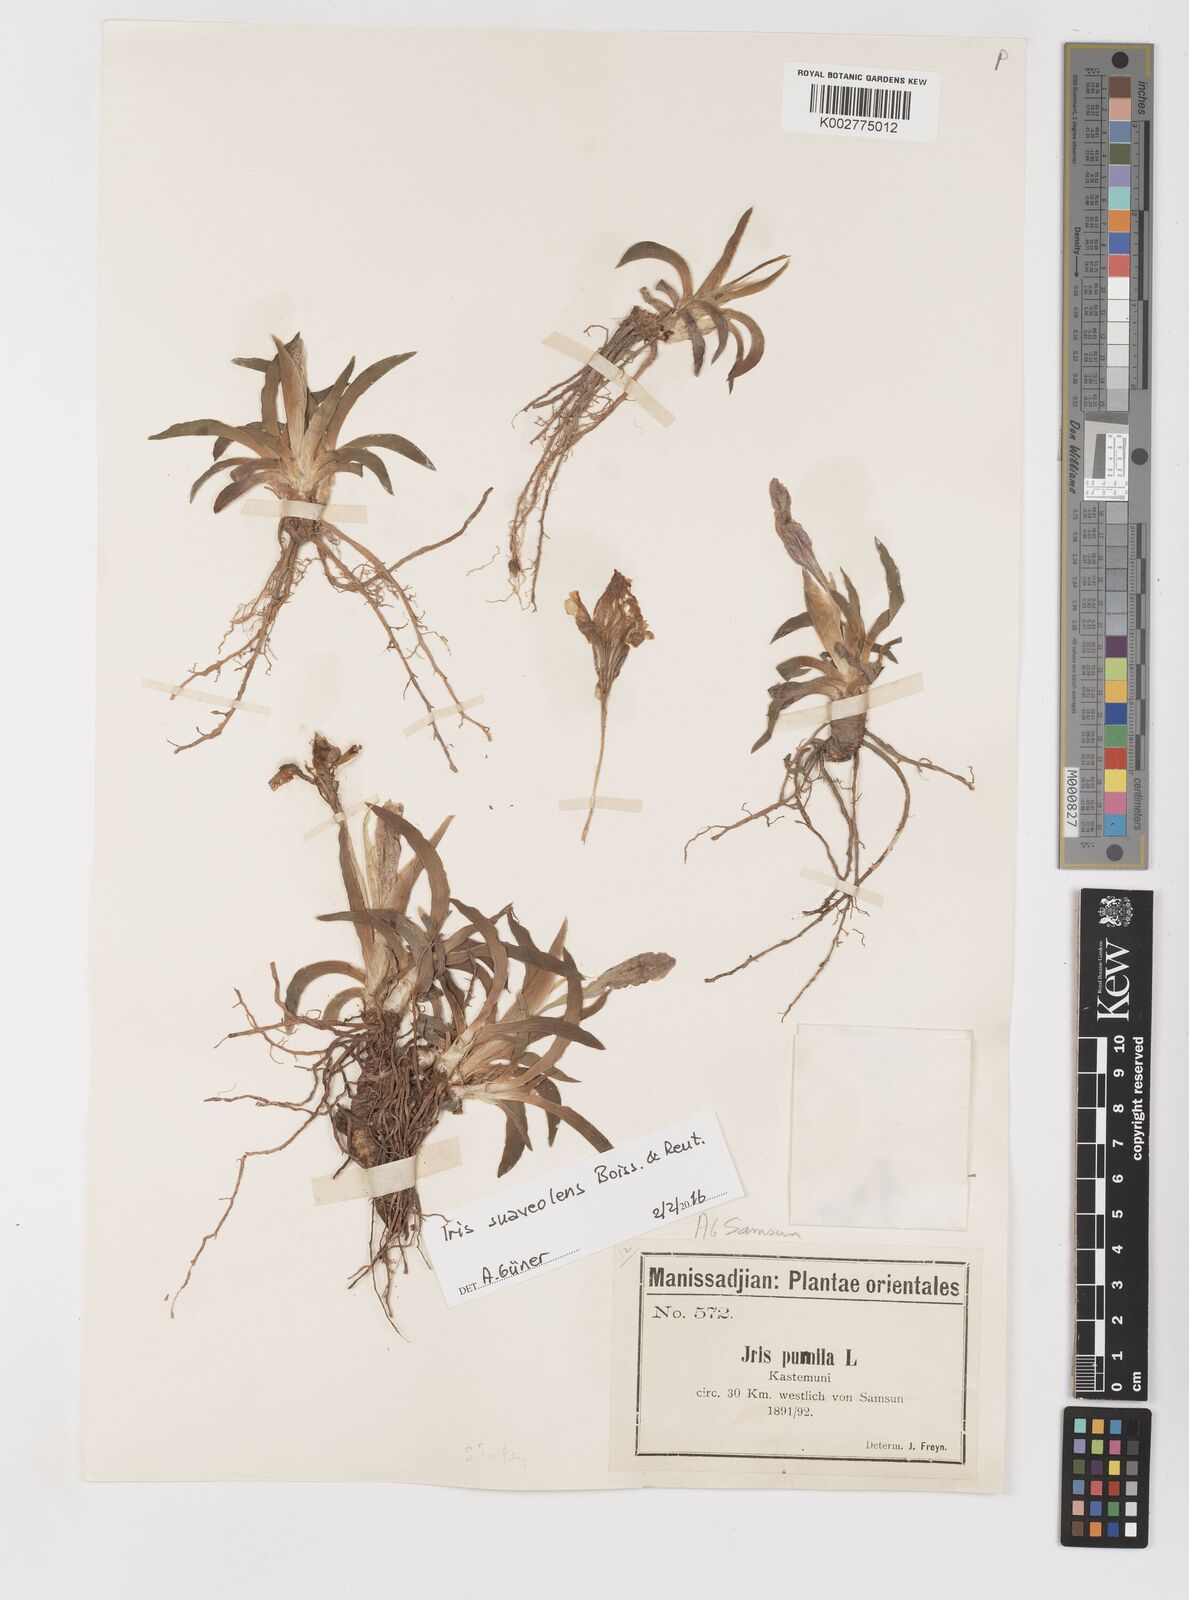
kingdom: Plantae
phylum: Tracheophyta
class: Liliopsida
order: Asparagales
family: Iridaceae
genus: Iris
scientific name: Iris suaveolens
